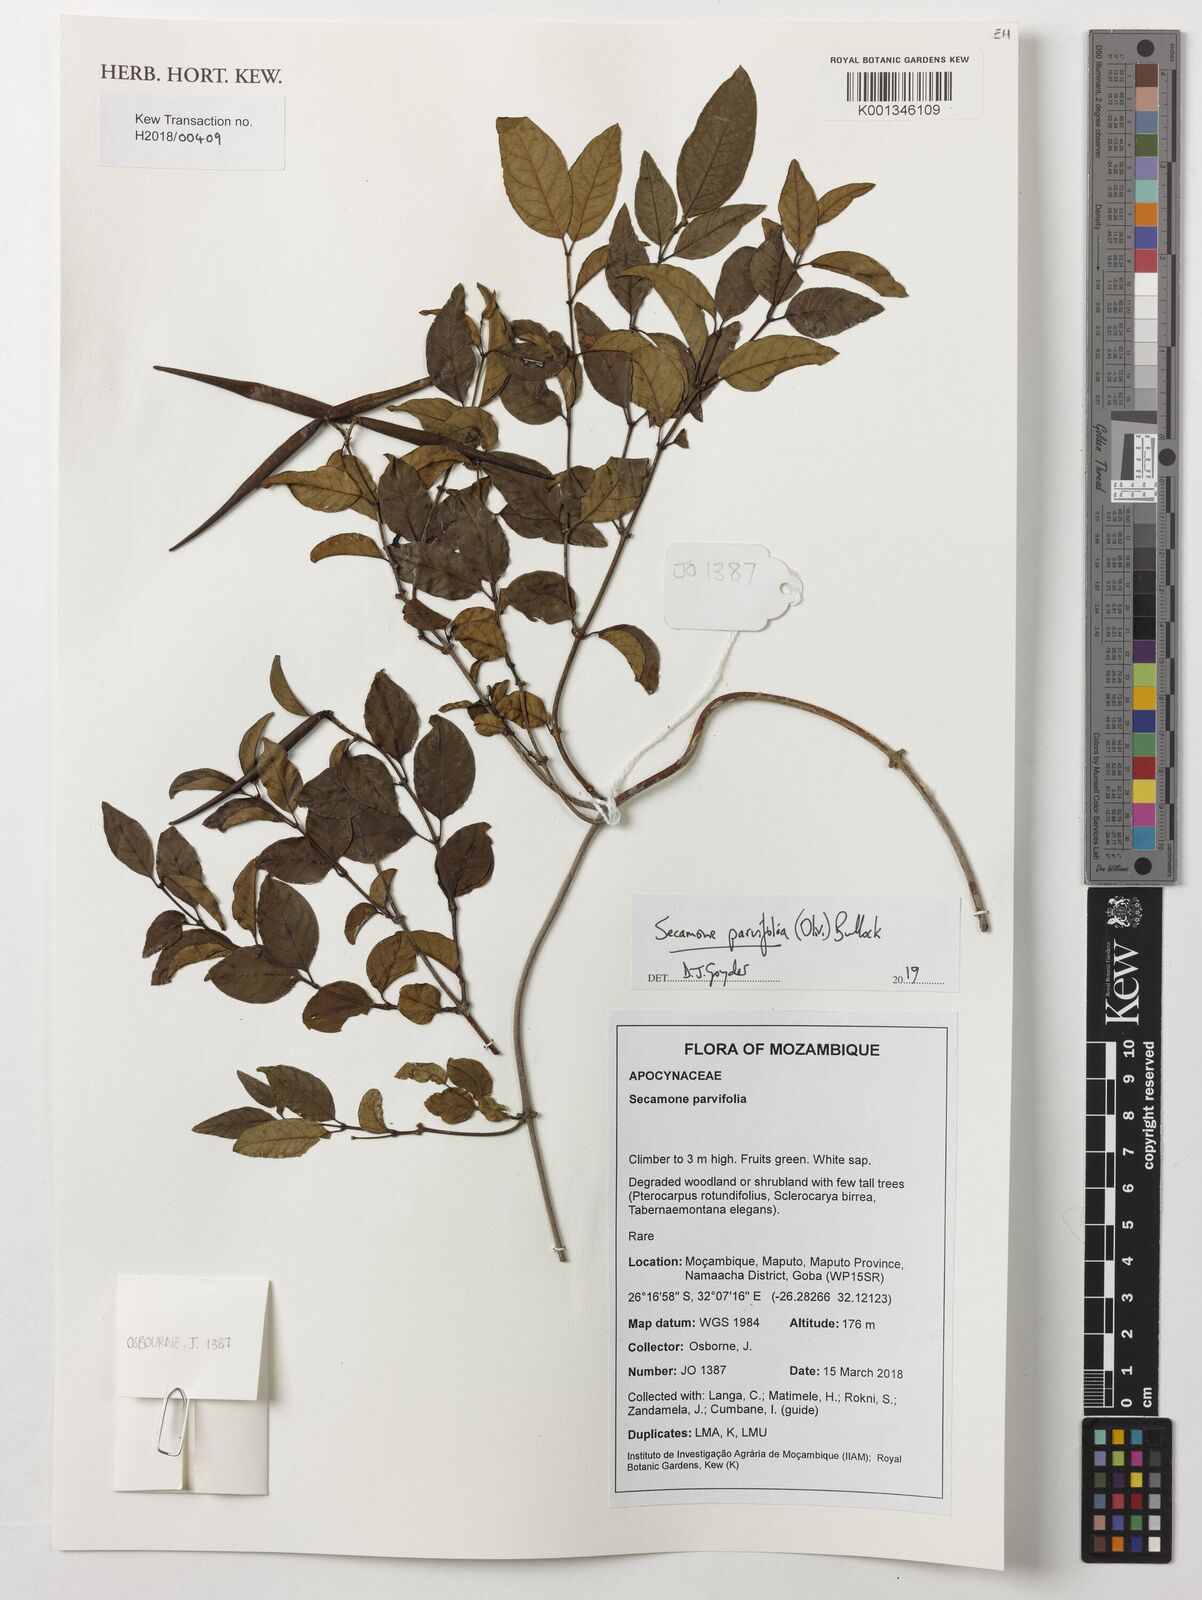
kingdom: Plantae
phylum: Tracheophyta
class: Magnoliopsida
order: Gentianales
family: Apocynaceae
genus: Secamone
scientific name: Secamone schweinfurthii
